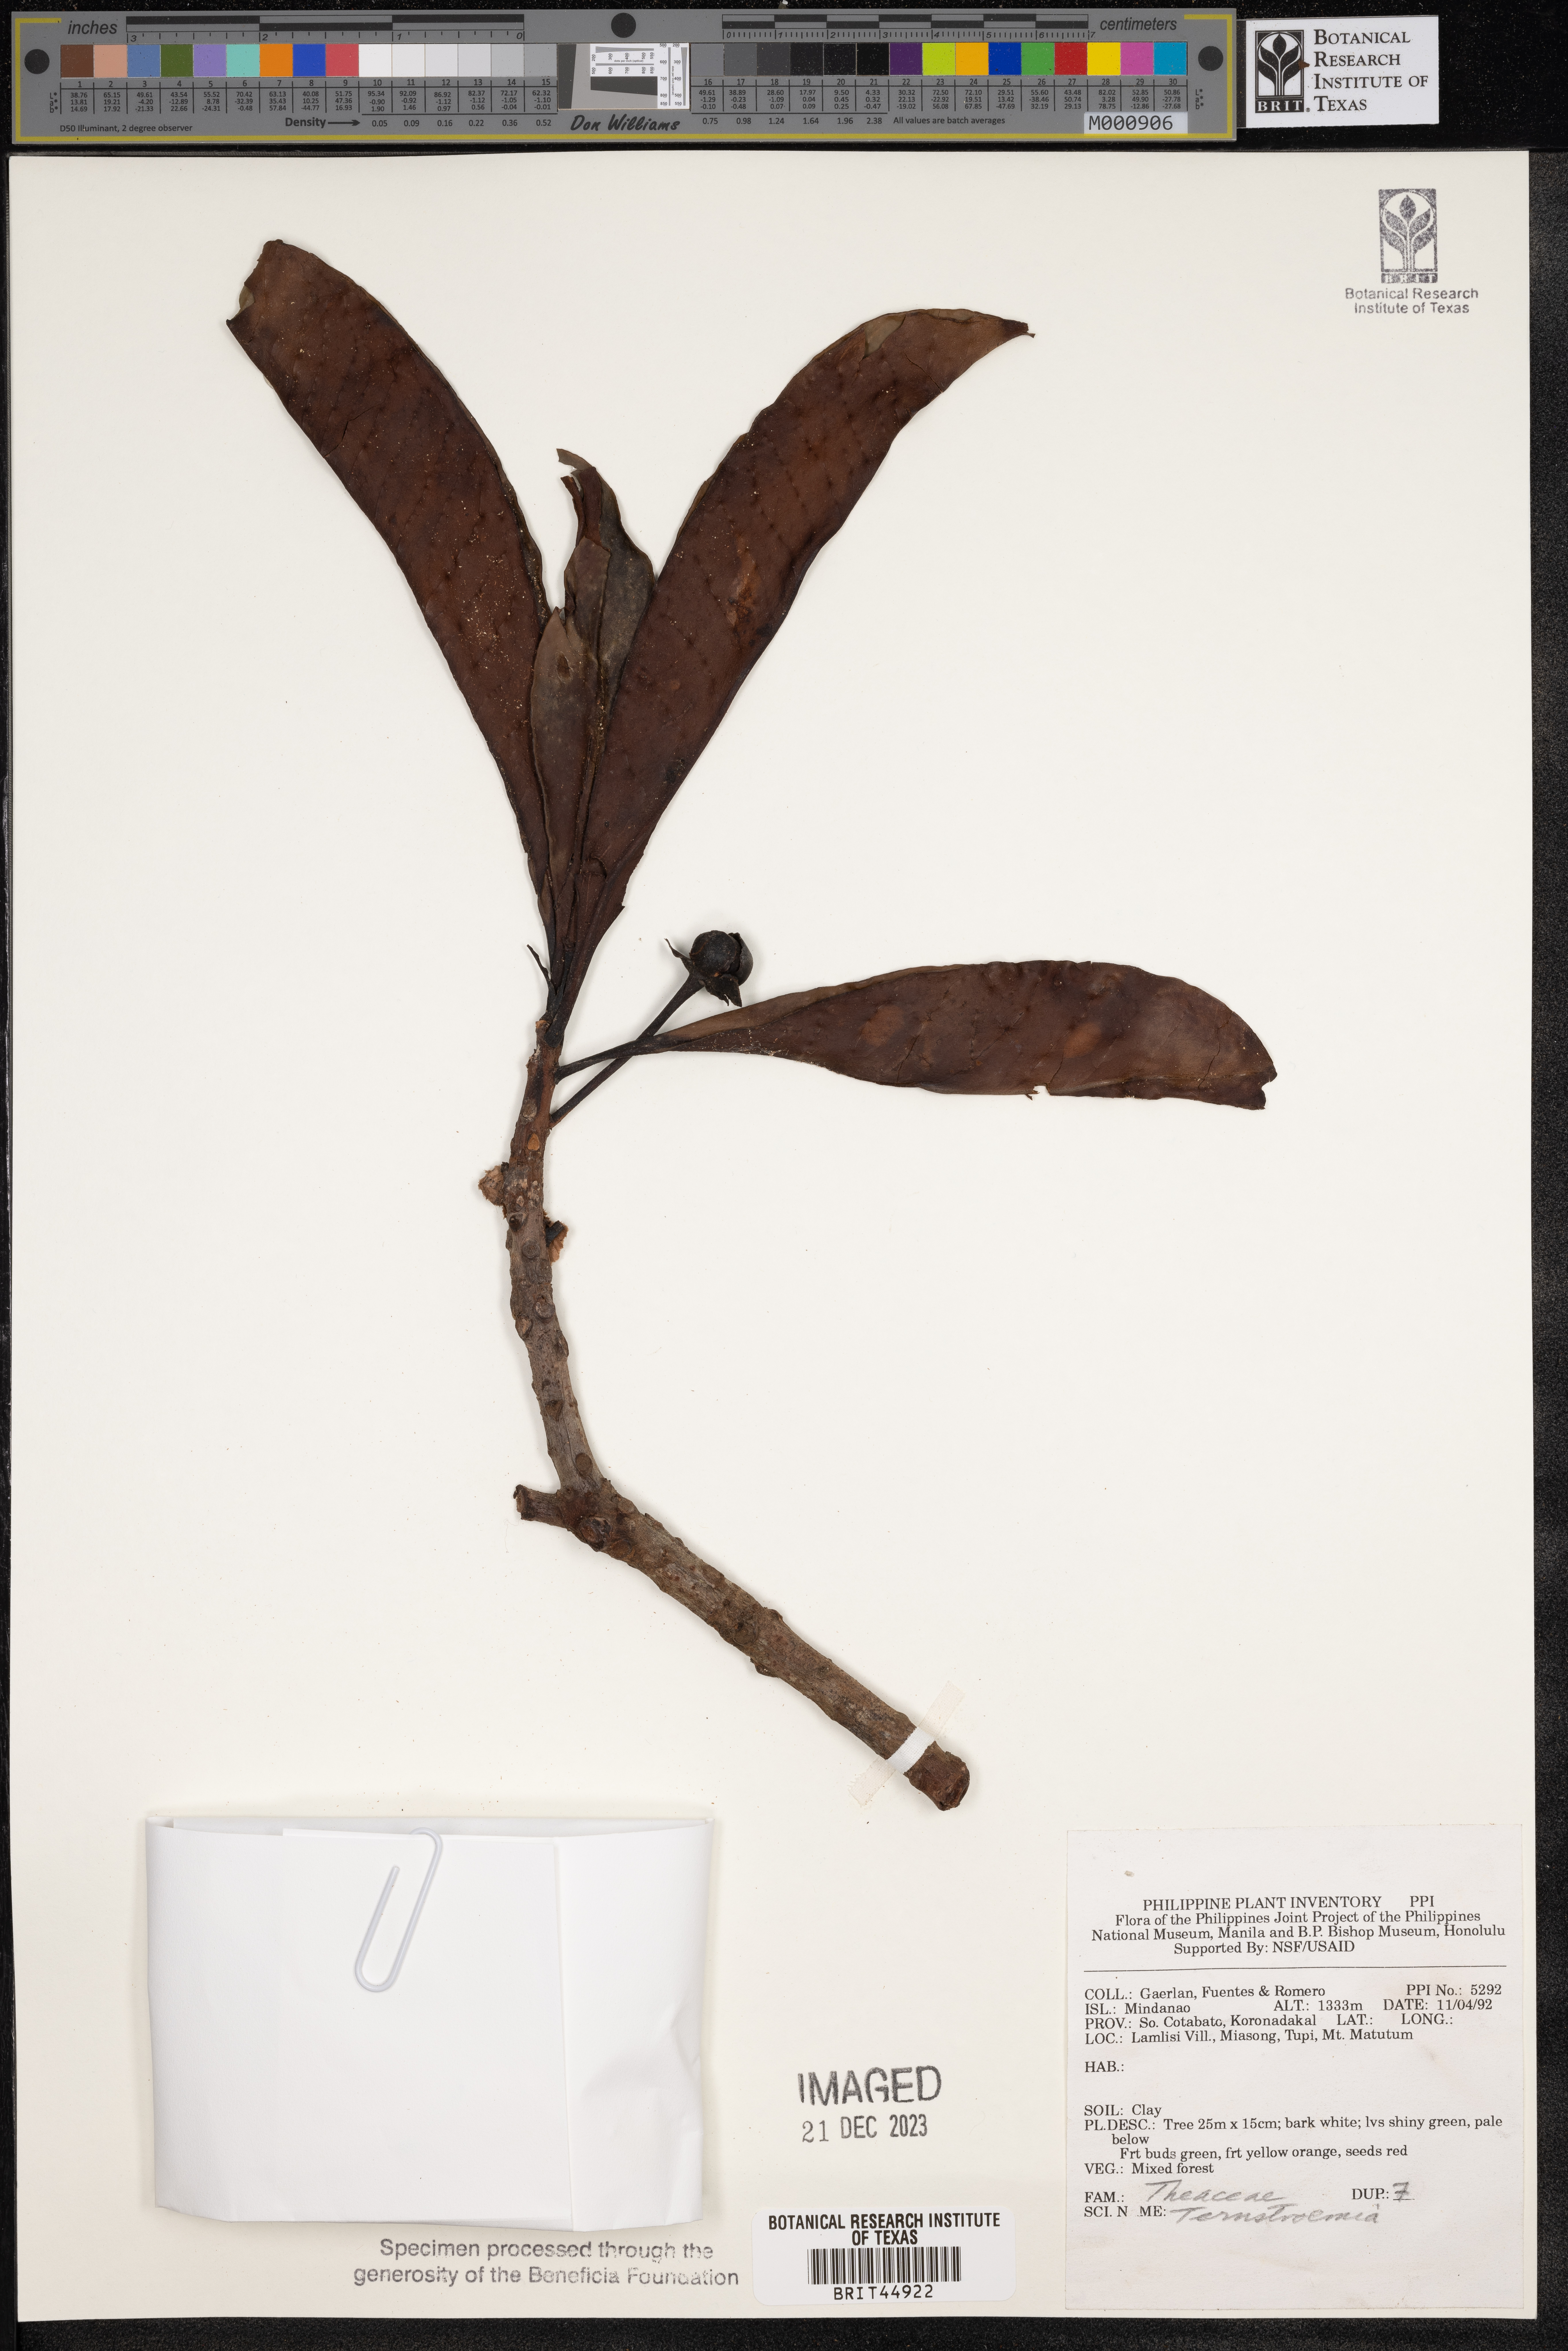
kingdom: Plantae
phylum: Tracheophyta
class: Magnoliopsida
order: Ericales
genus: Ternstroemia
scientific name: Ternstroemia
